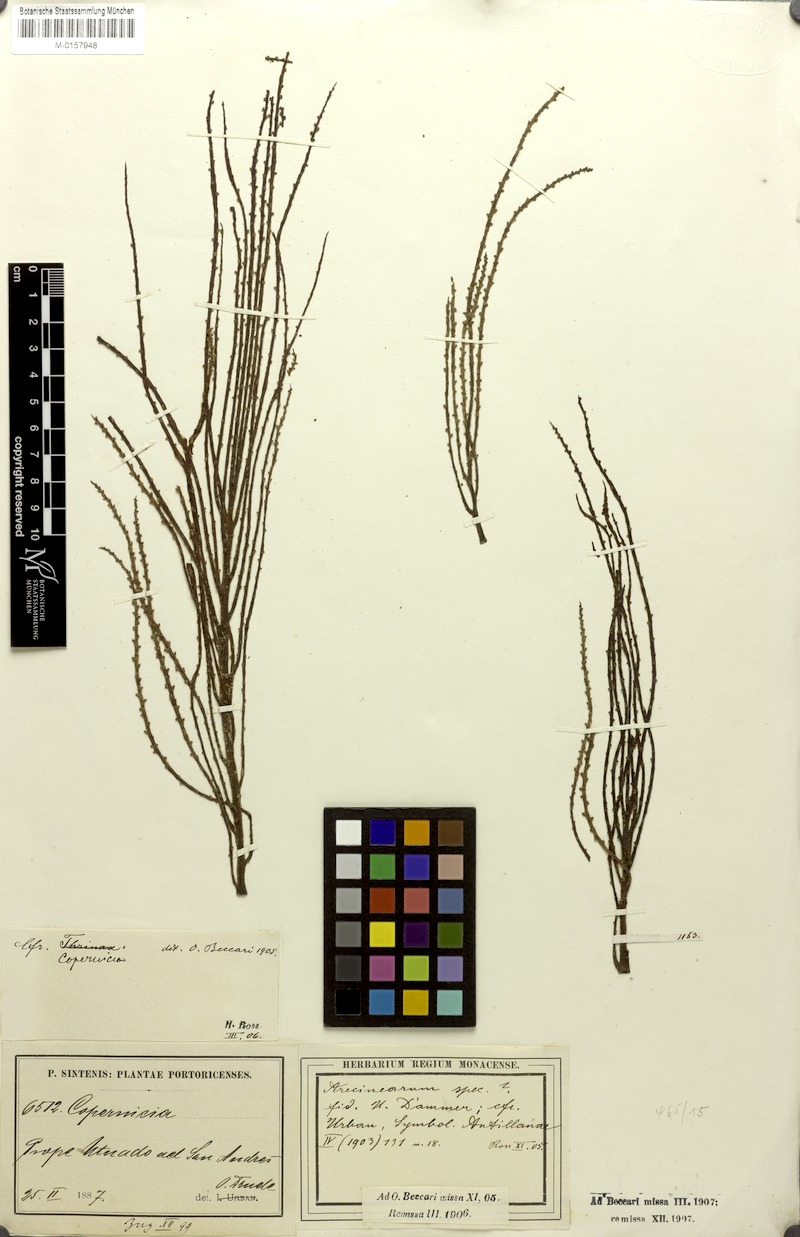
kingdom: Plantae
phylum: Tracheophyta
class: Liliopsida
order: Arecales
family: Arecaceae
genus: Copernicia
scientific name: Copernicia
